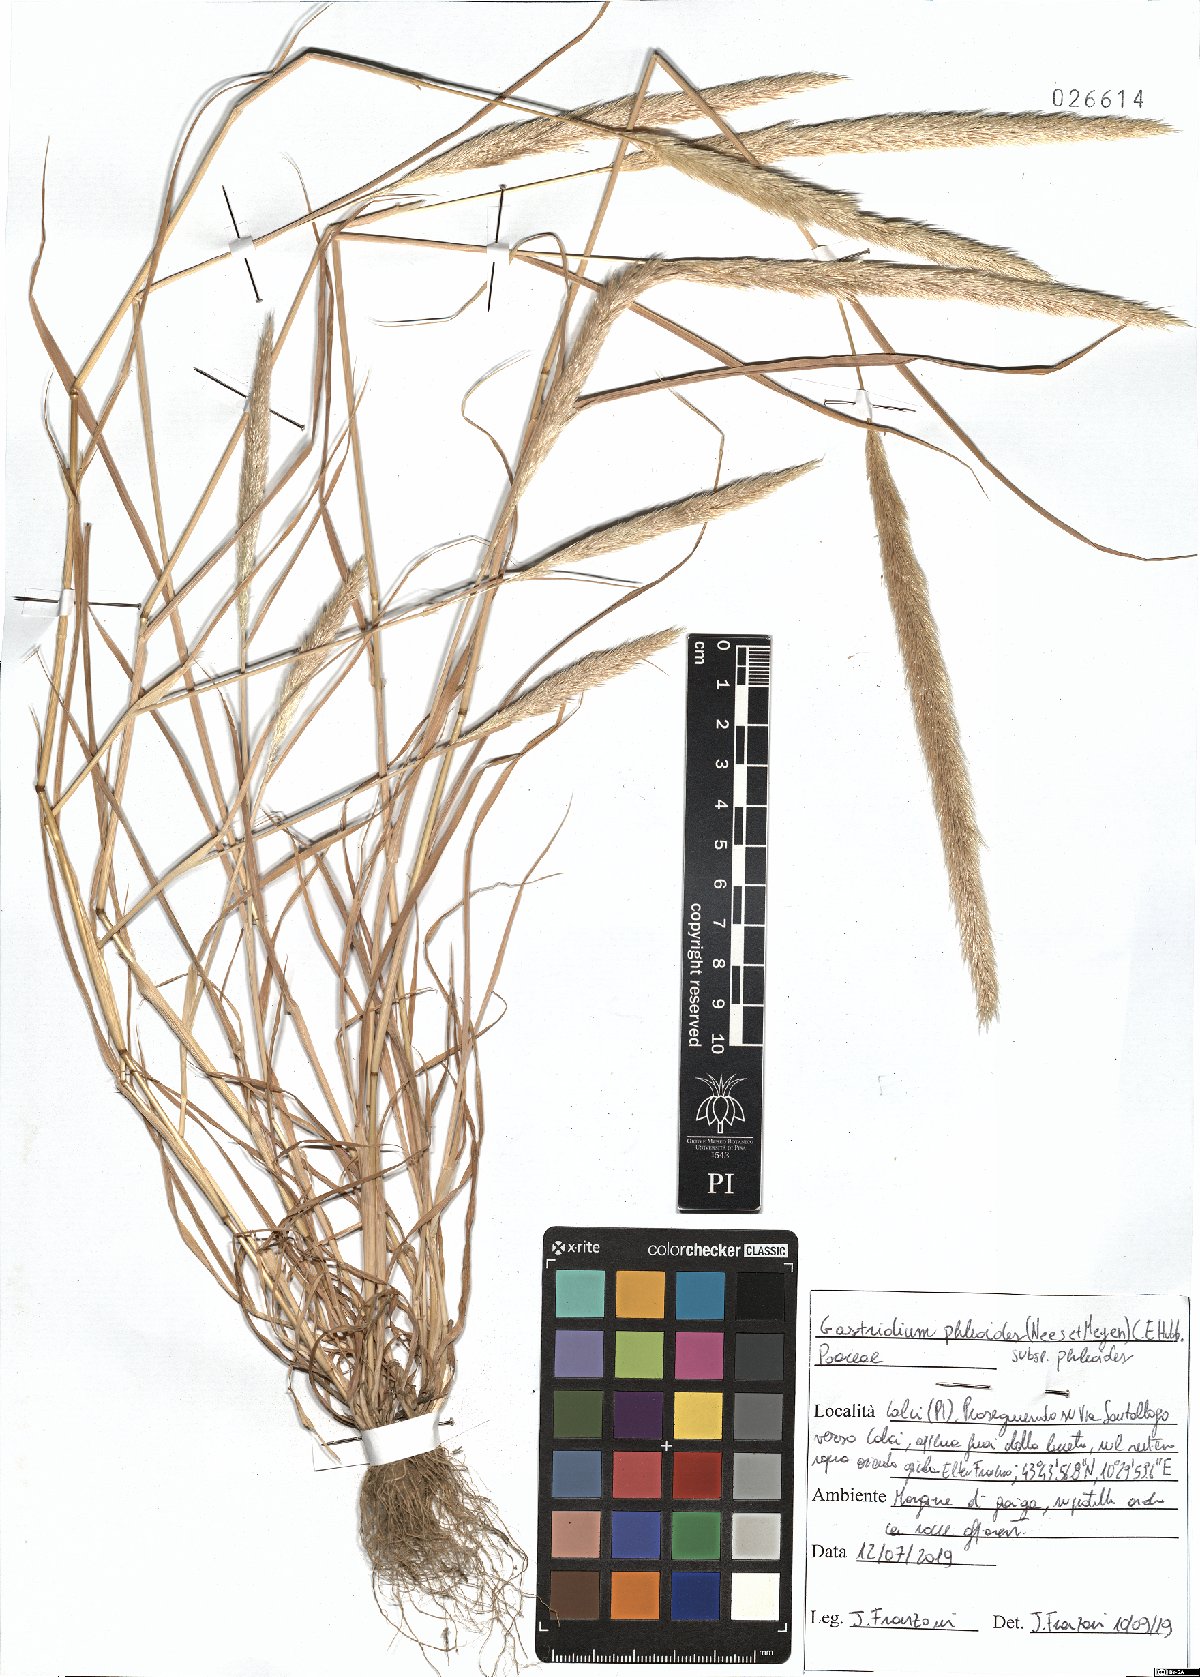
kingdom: Plantae
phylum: Tracheophyta
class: Liliopsida
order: Poales
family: Poaceae
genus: Gastridium
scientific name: Gastridium phleoides
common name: Nit grass
